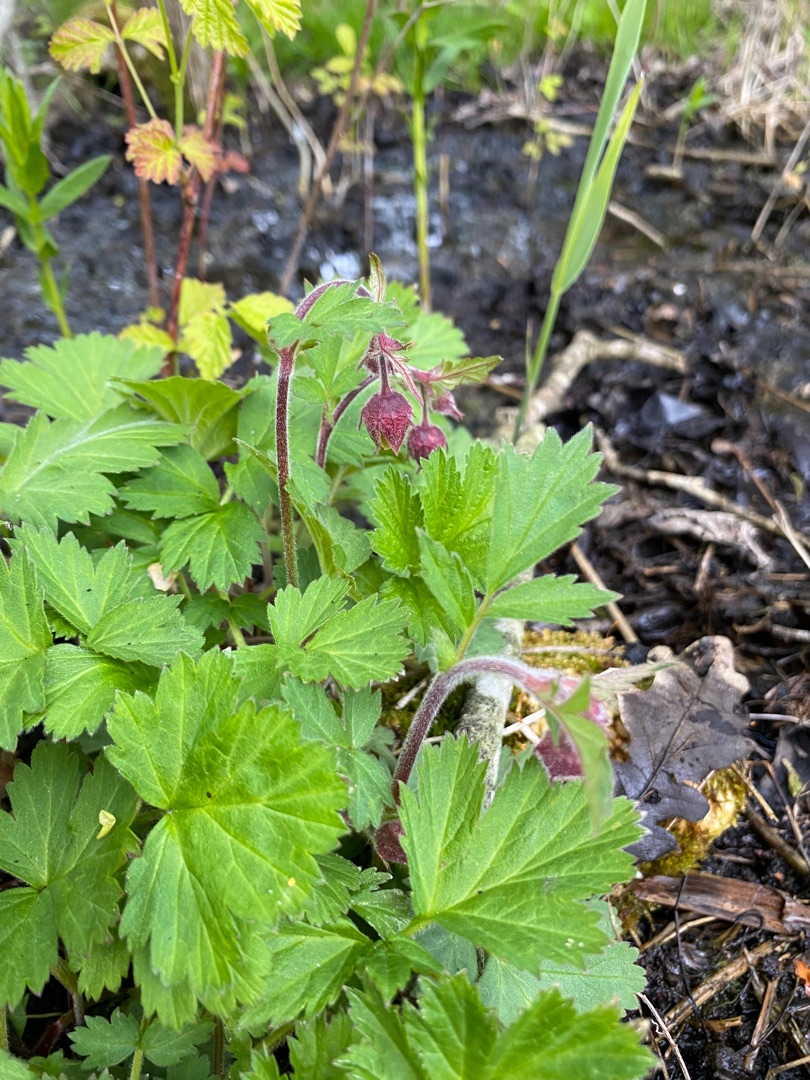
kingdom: Plantae
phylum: Tracheophyta
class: Magnoliopsida
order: Rosales
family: Rosaceae
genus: Geum
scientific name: Geum rivale
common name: Eng-nellikerod
